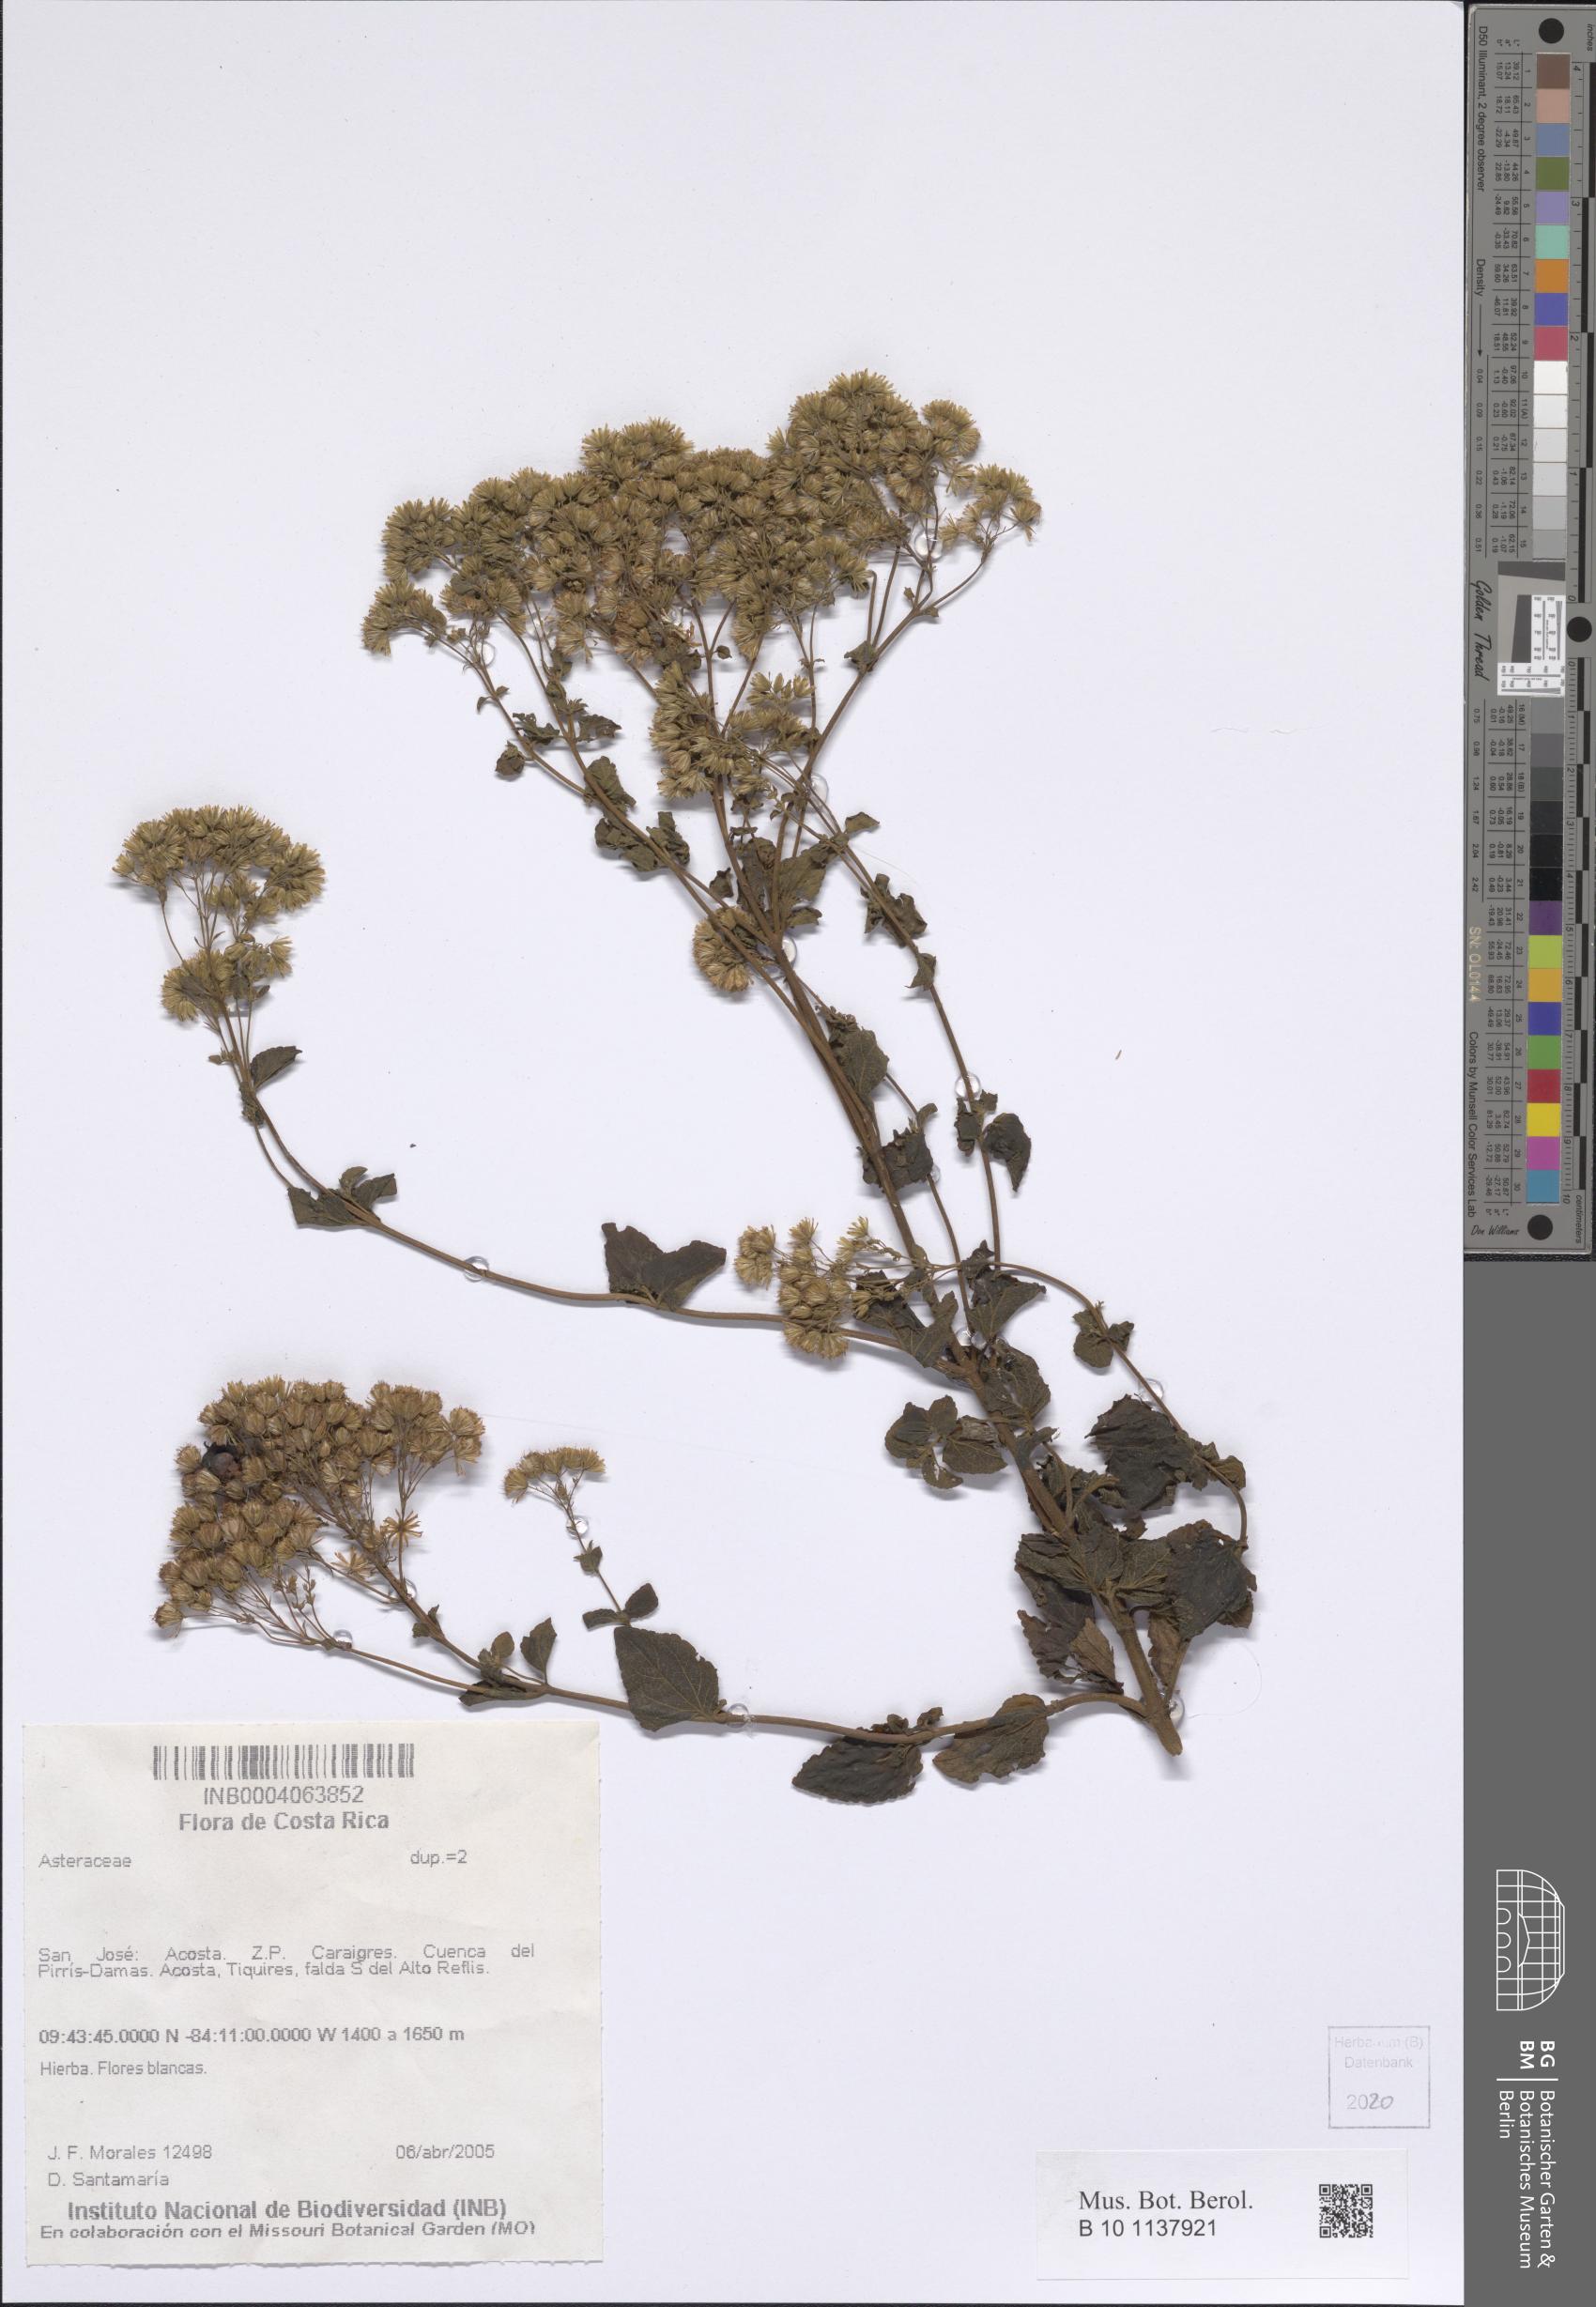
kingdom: Plantae
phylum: Tracheophyta
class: Magnoliopsida
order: Asterales
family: Asteraceae
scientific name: Asteraceae
